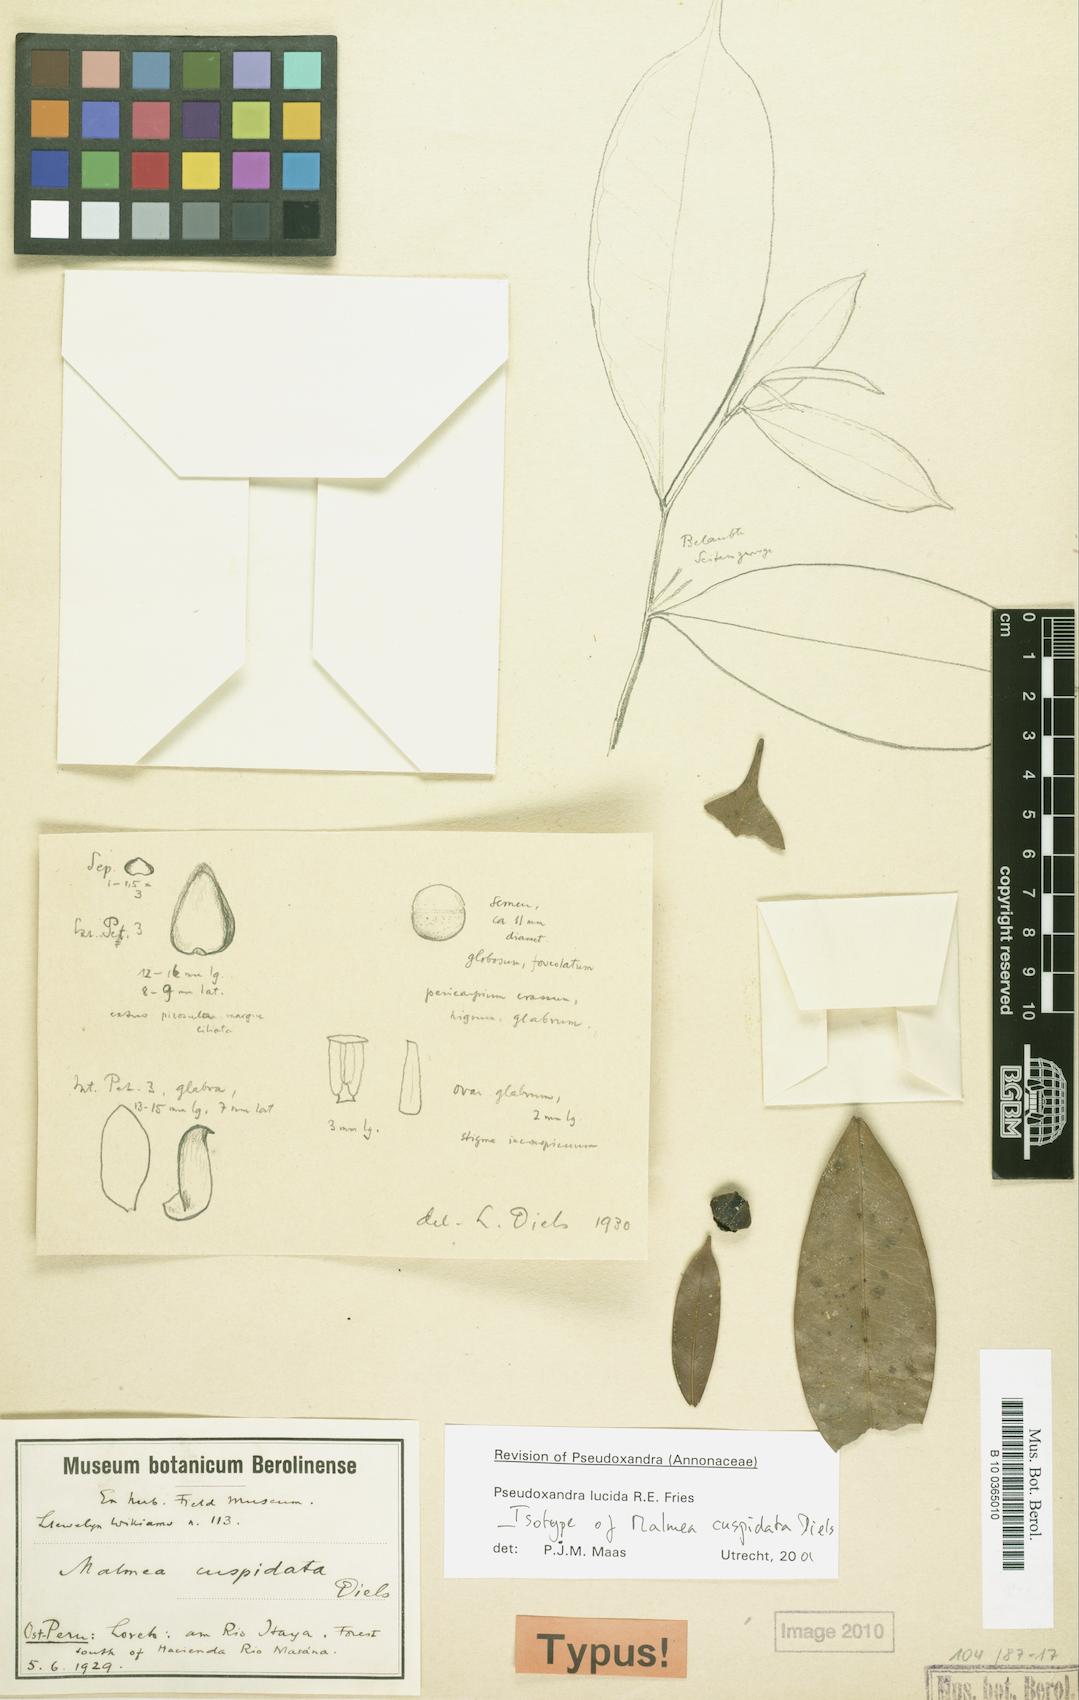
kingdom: Plantae
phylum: Tracheophyta
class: Magnoliopsida
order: Magnoliales
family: Annonaceae
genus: Pseudoxandra
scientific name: Pseudoxandra lucida
